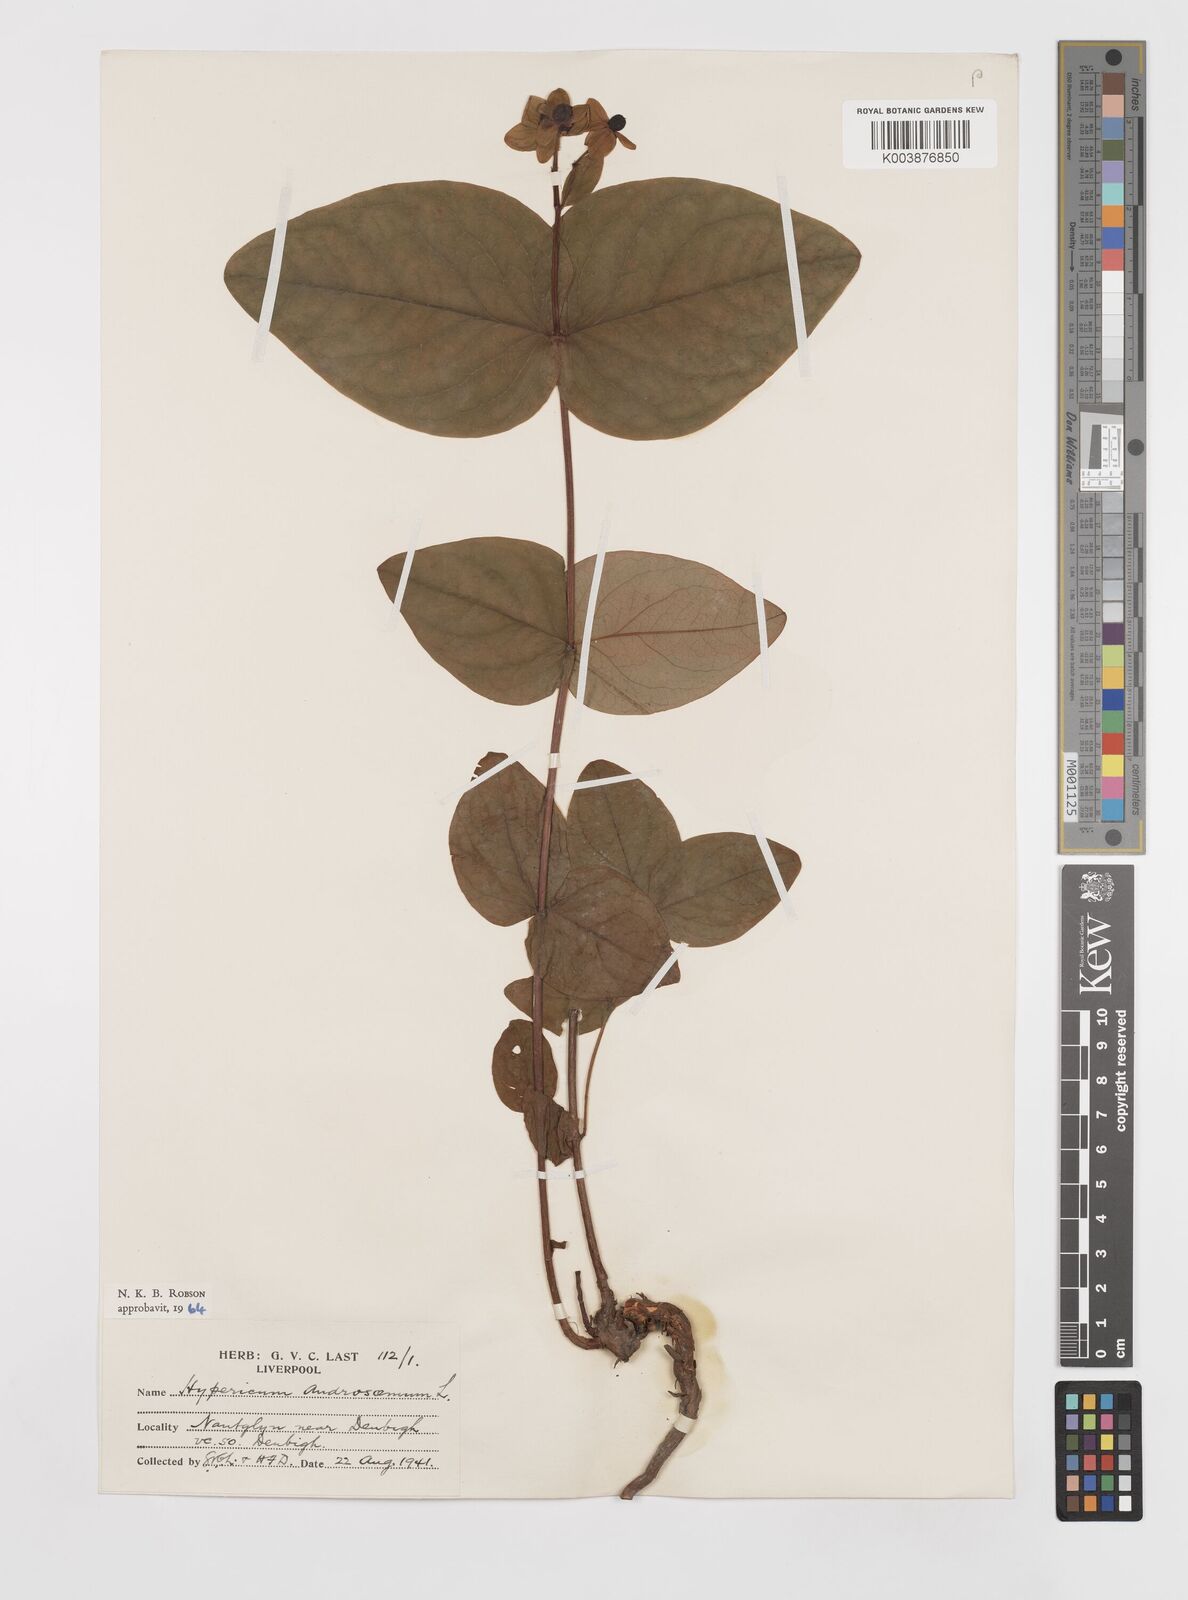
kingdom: Plantae
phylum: Tracheophyta
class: Magnoliopsida
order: Malpighiales
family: Hypericaceae
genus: Hypericum
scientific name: Hypericum androsaemum
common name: Sweet-amber
